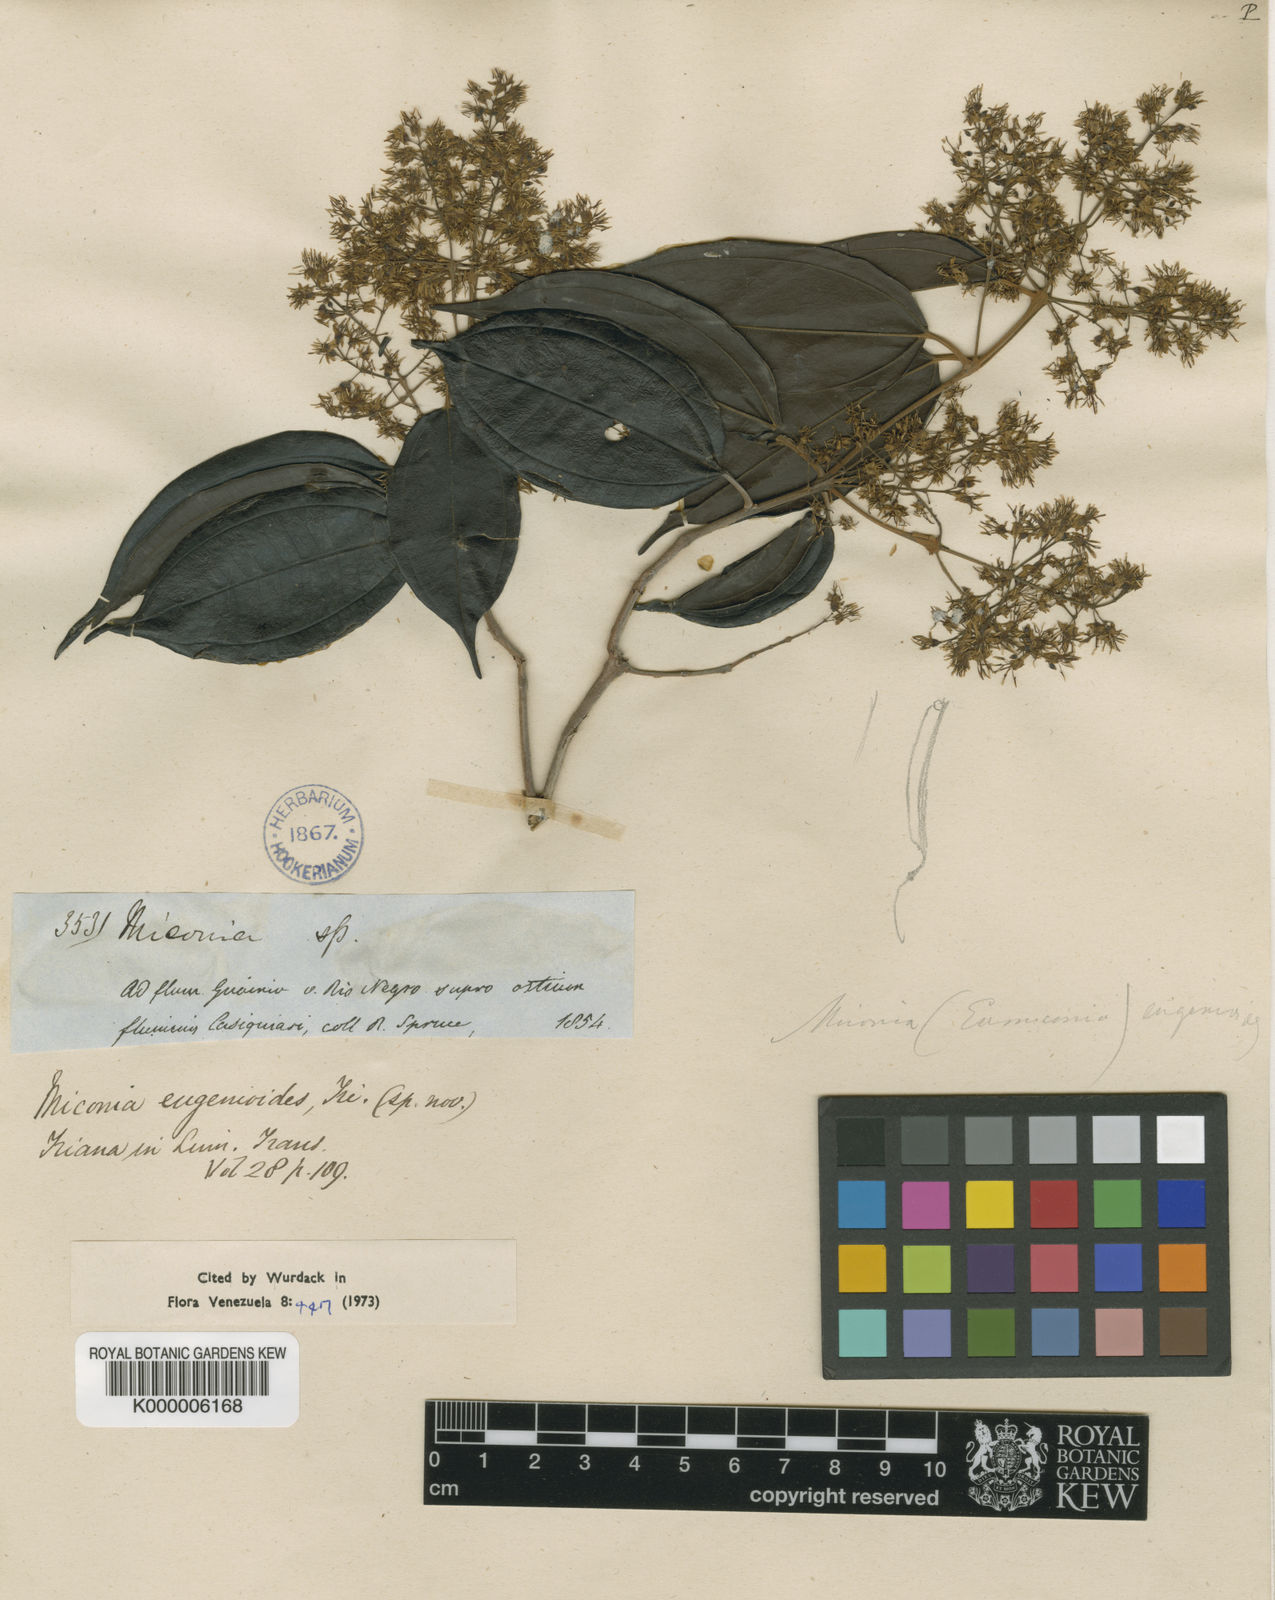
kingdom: Plantae
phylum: Tracheophyta
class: Magnoliopsida
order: Myrtales
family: Melastomataceae
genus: Miconia
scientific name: Miconia eugenioides
